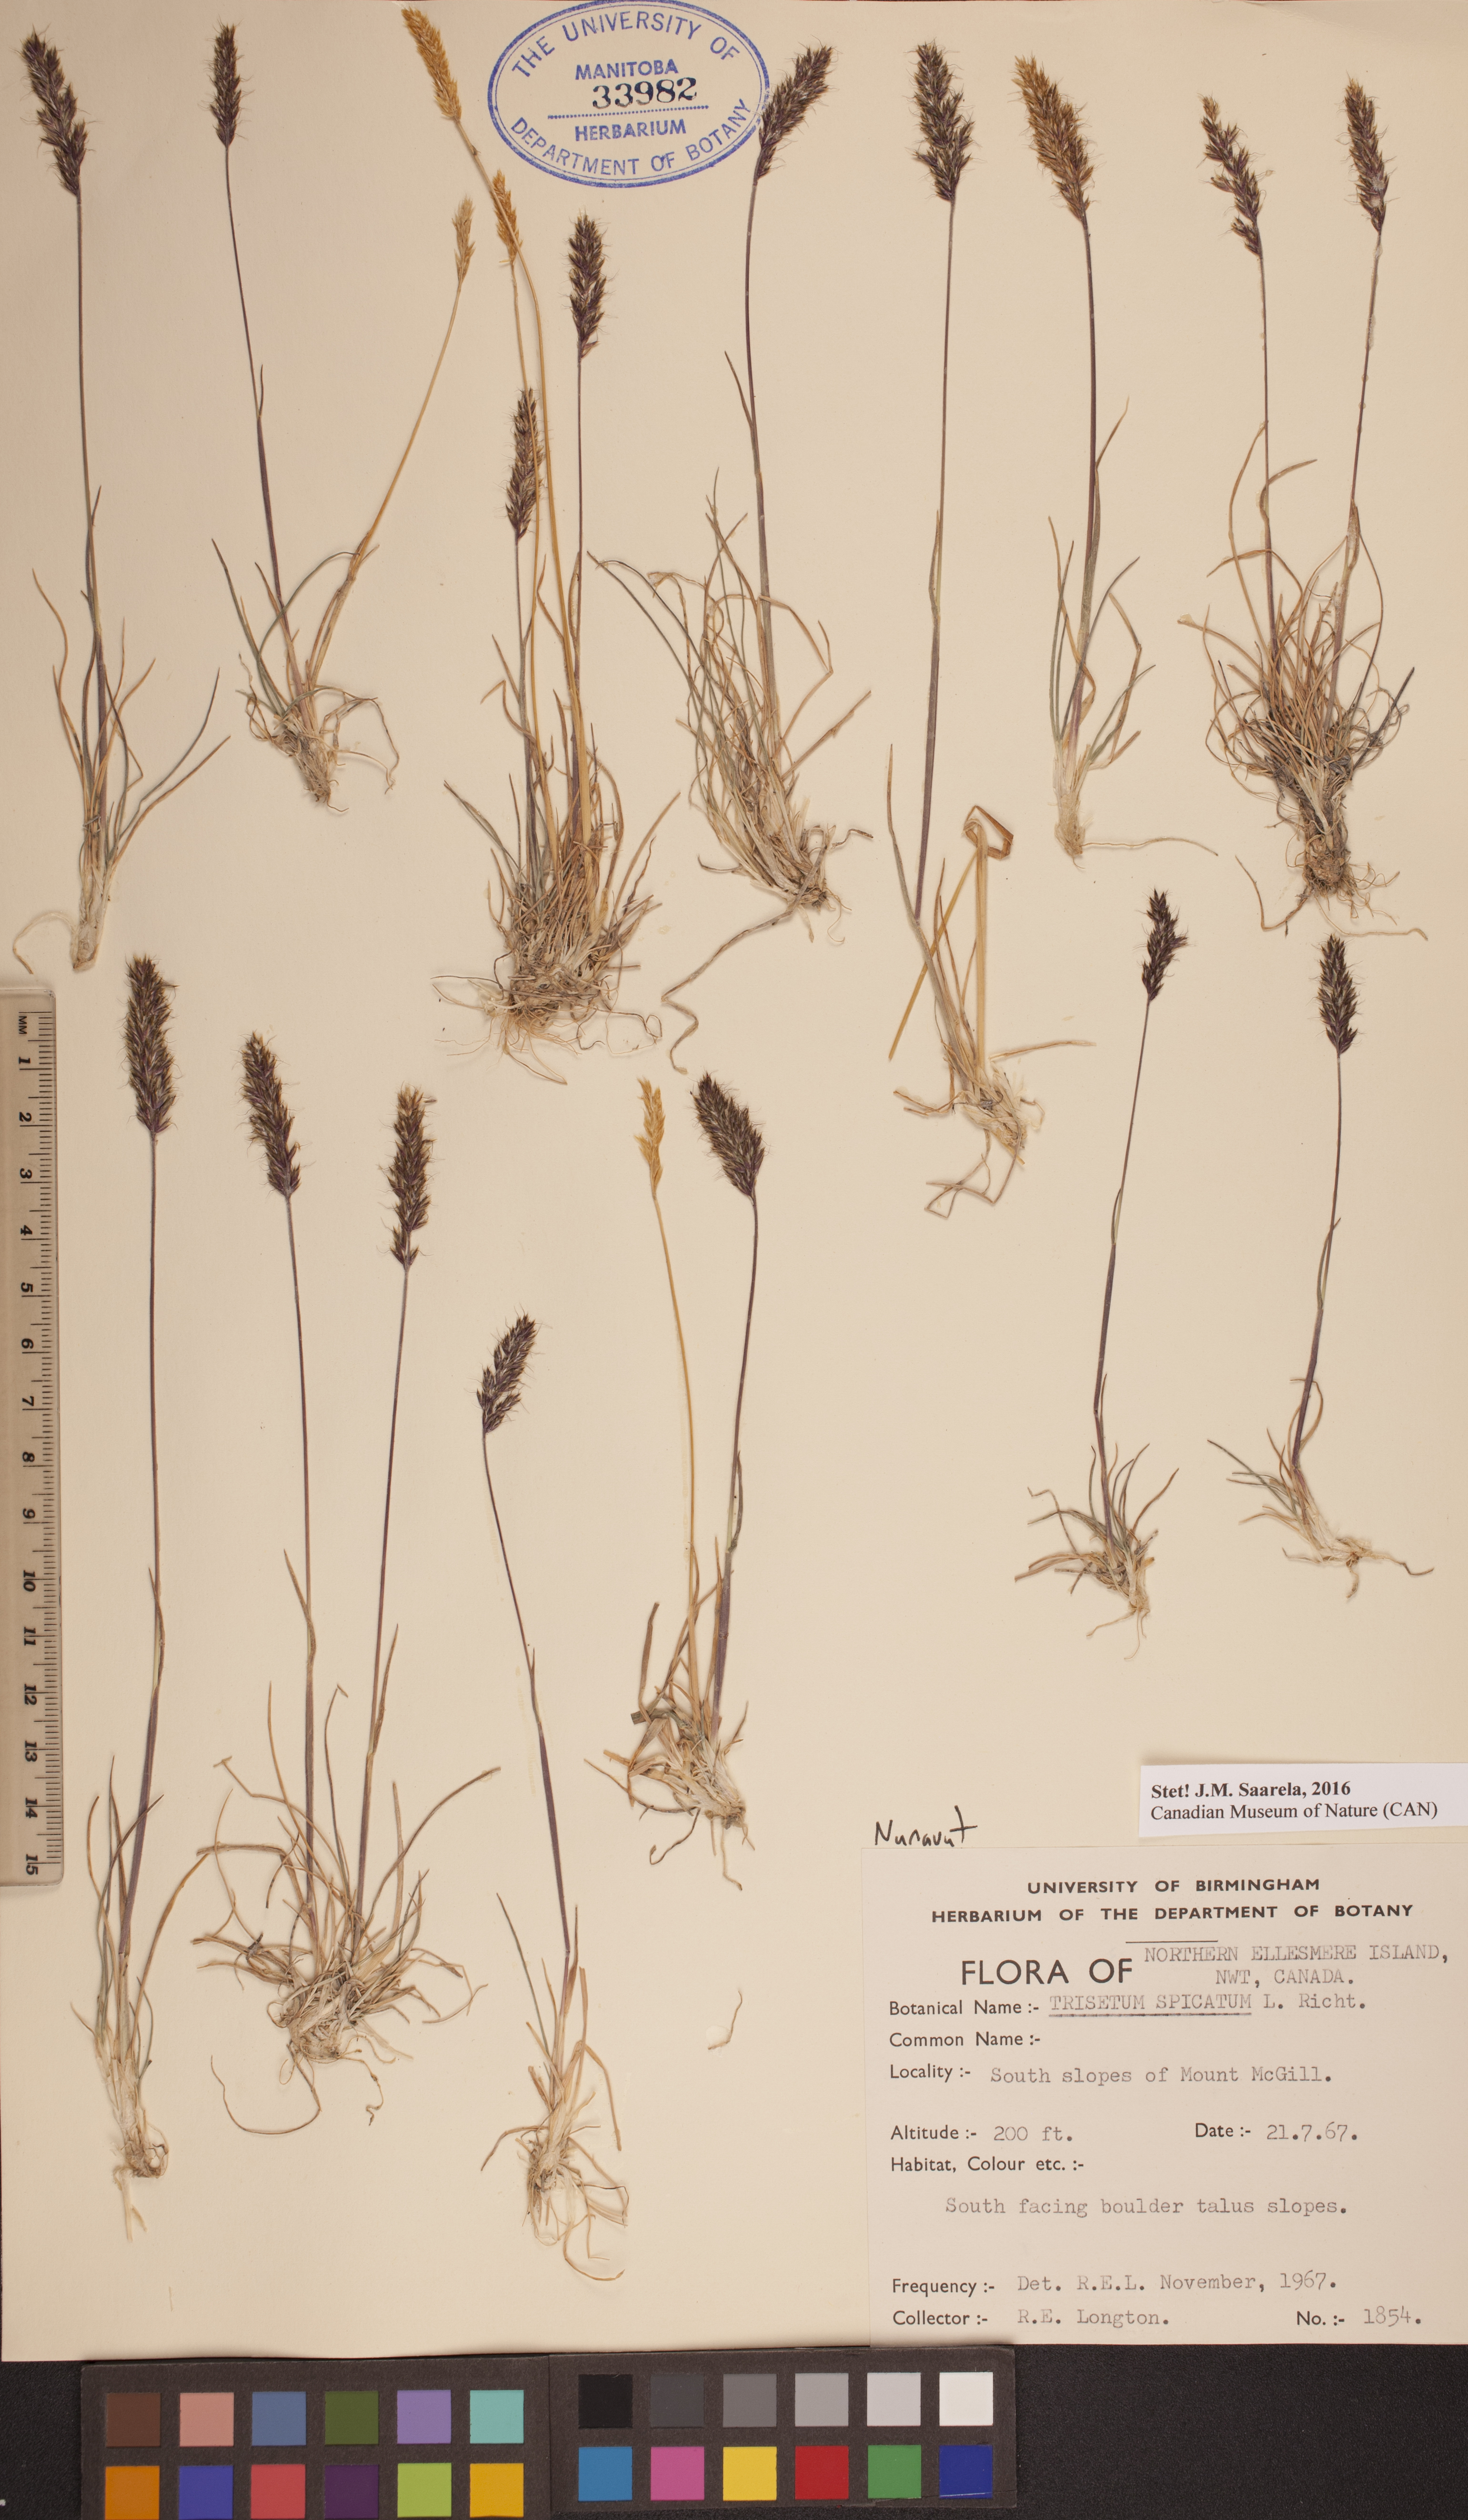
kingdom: Plantae
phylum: Tracheophyta
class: Liliopsida
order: Poales
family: Poaceae
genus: Koeleria
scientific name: Koeleria spicata
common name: Mountain trisetum
